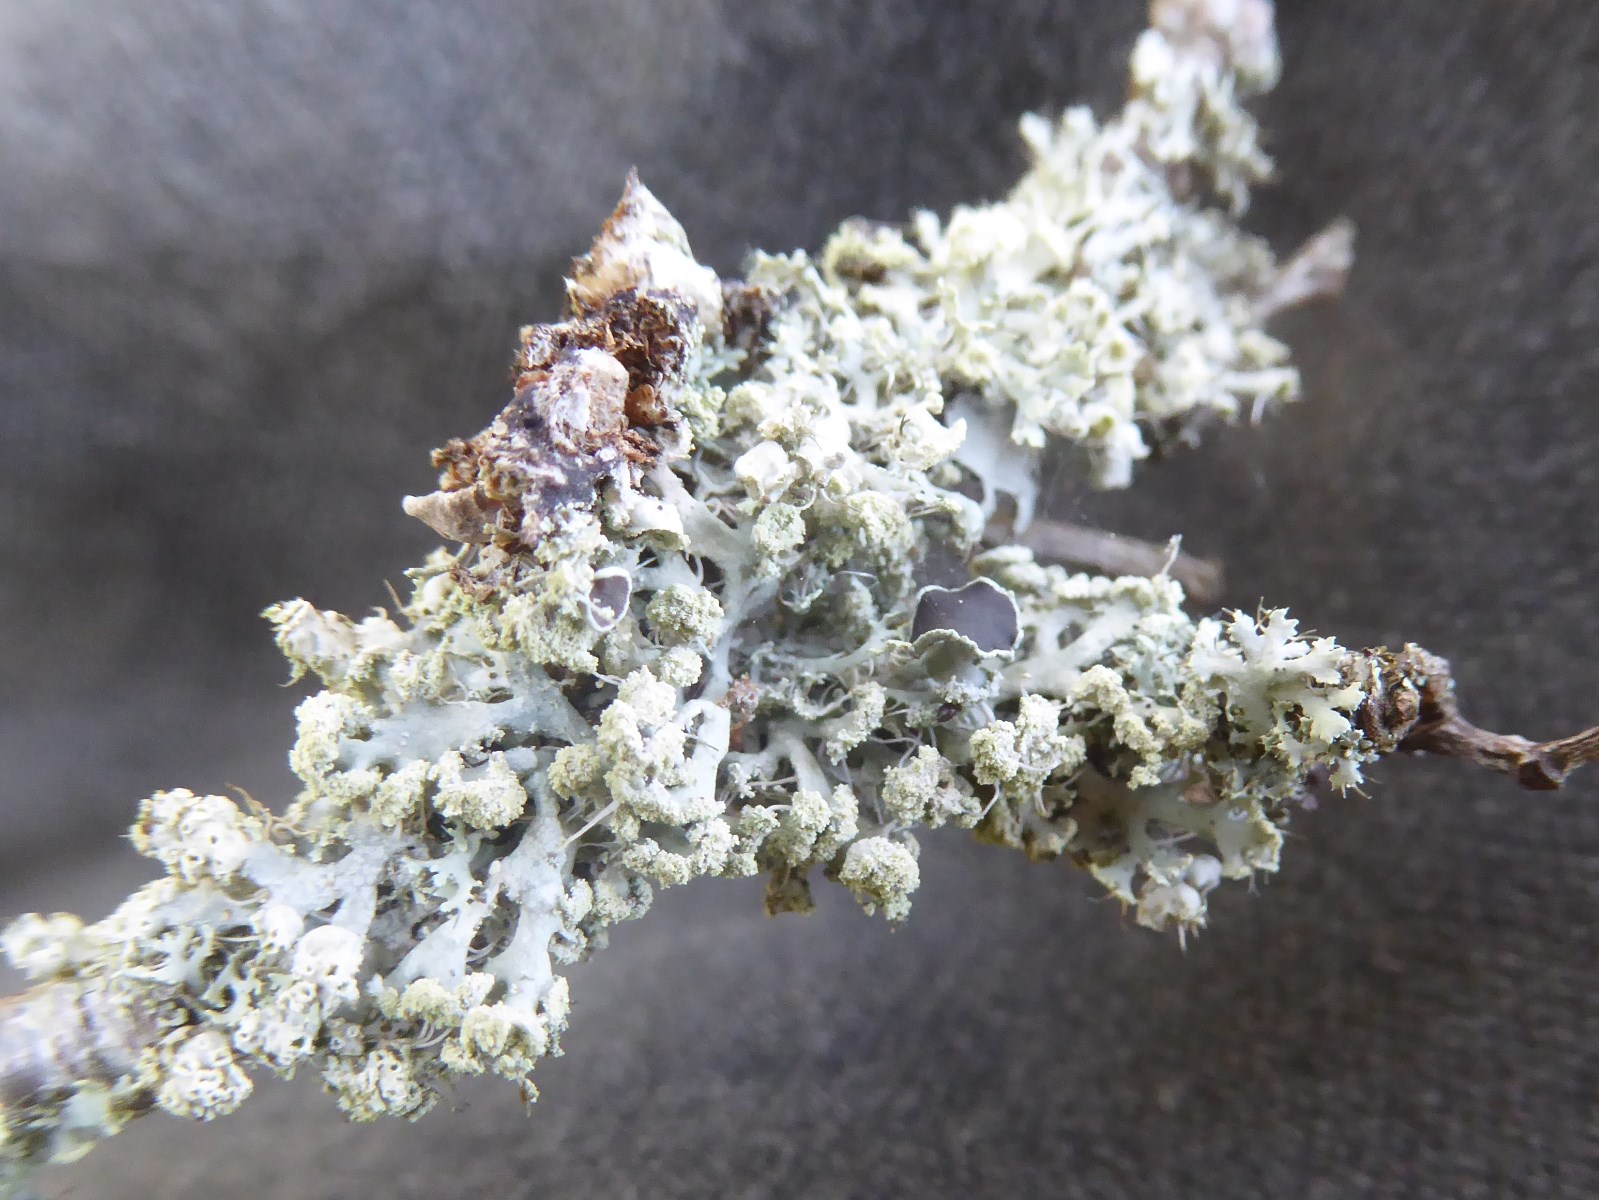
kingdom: Fungi
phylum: Ascomycota
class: Lecanoromycetes
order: Caliciales
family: Physciaceae
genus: Physcia
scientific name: Physcia tenella
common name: spæd rosetlav
